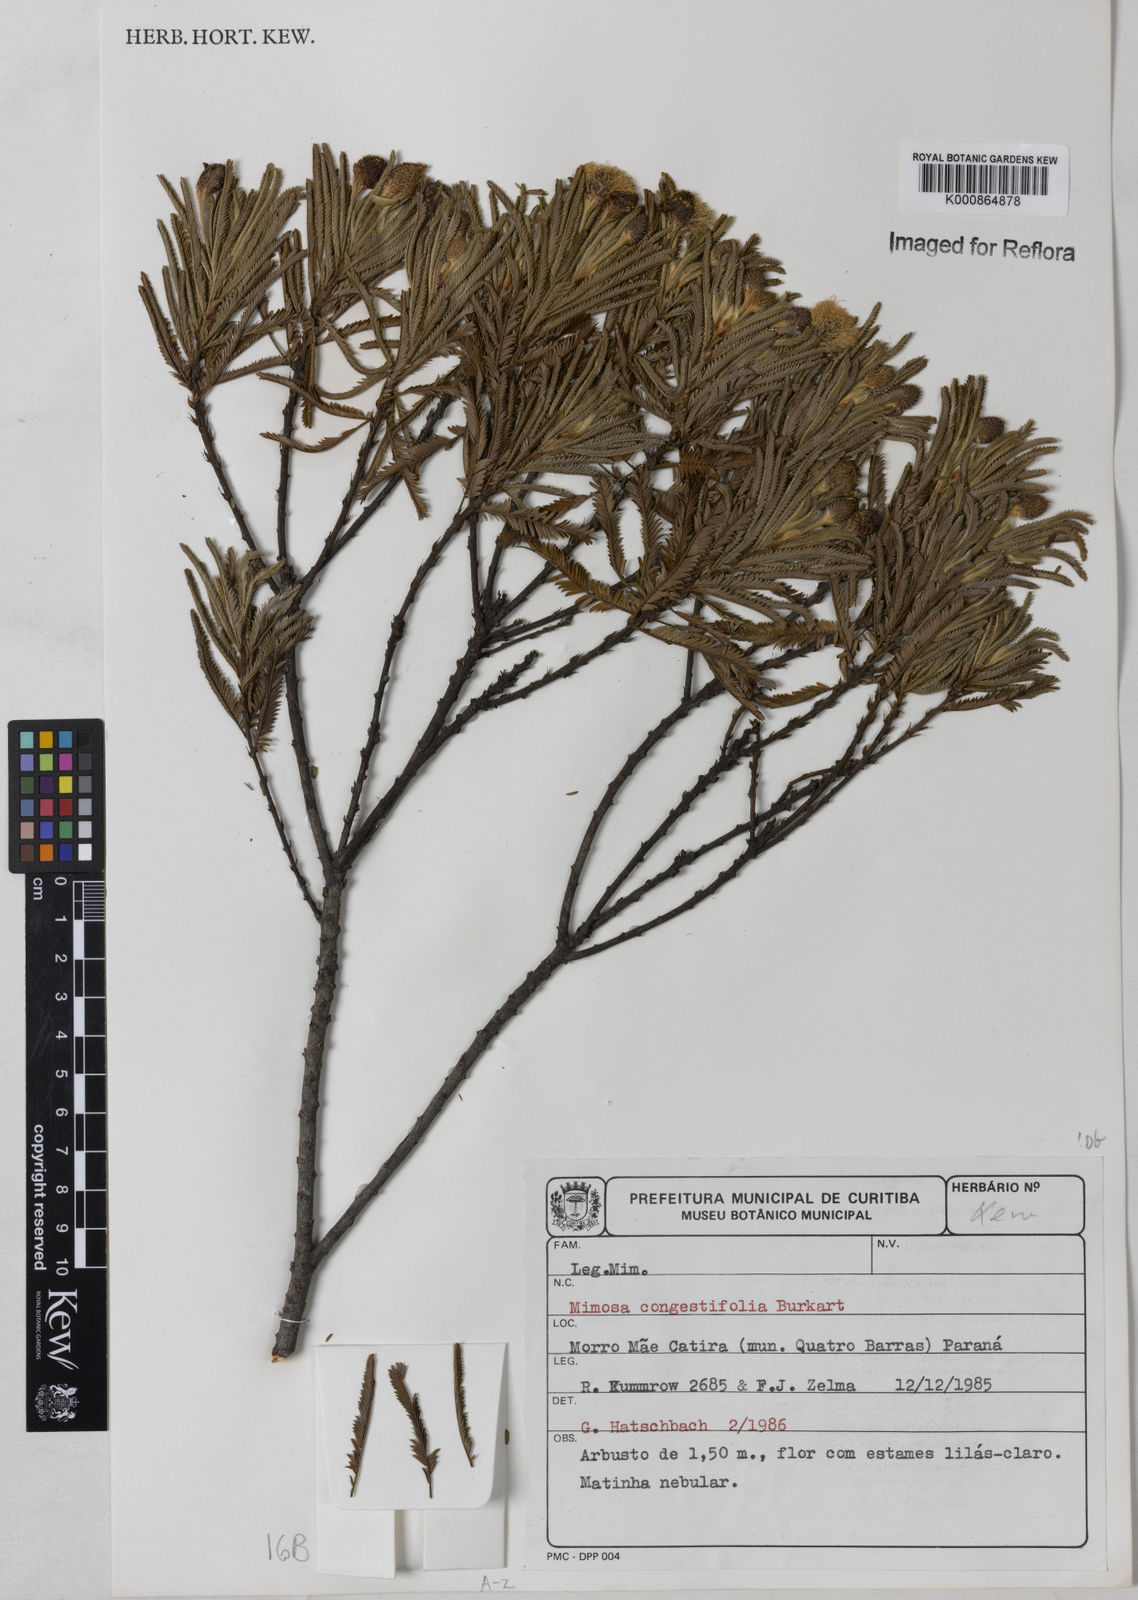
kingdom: Plantae
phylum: Tracheophyta
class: Magnoliopsida
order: Fabales
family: Fabaceae
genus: Mimosa
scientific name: Mimosa congestifolia
